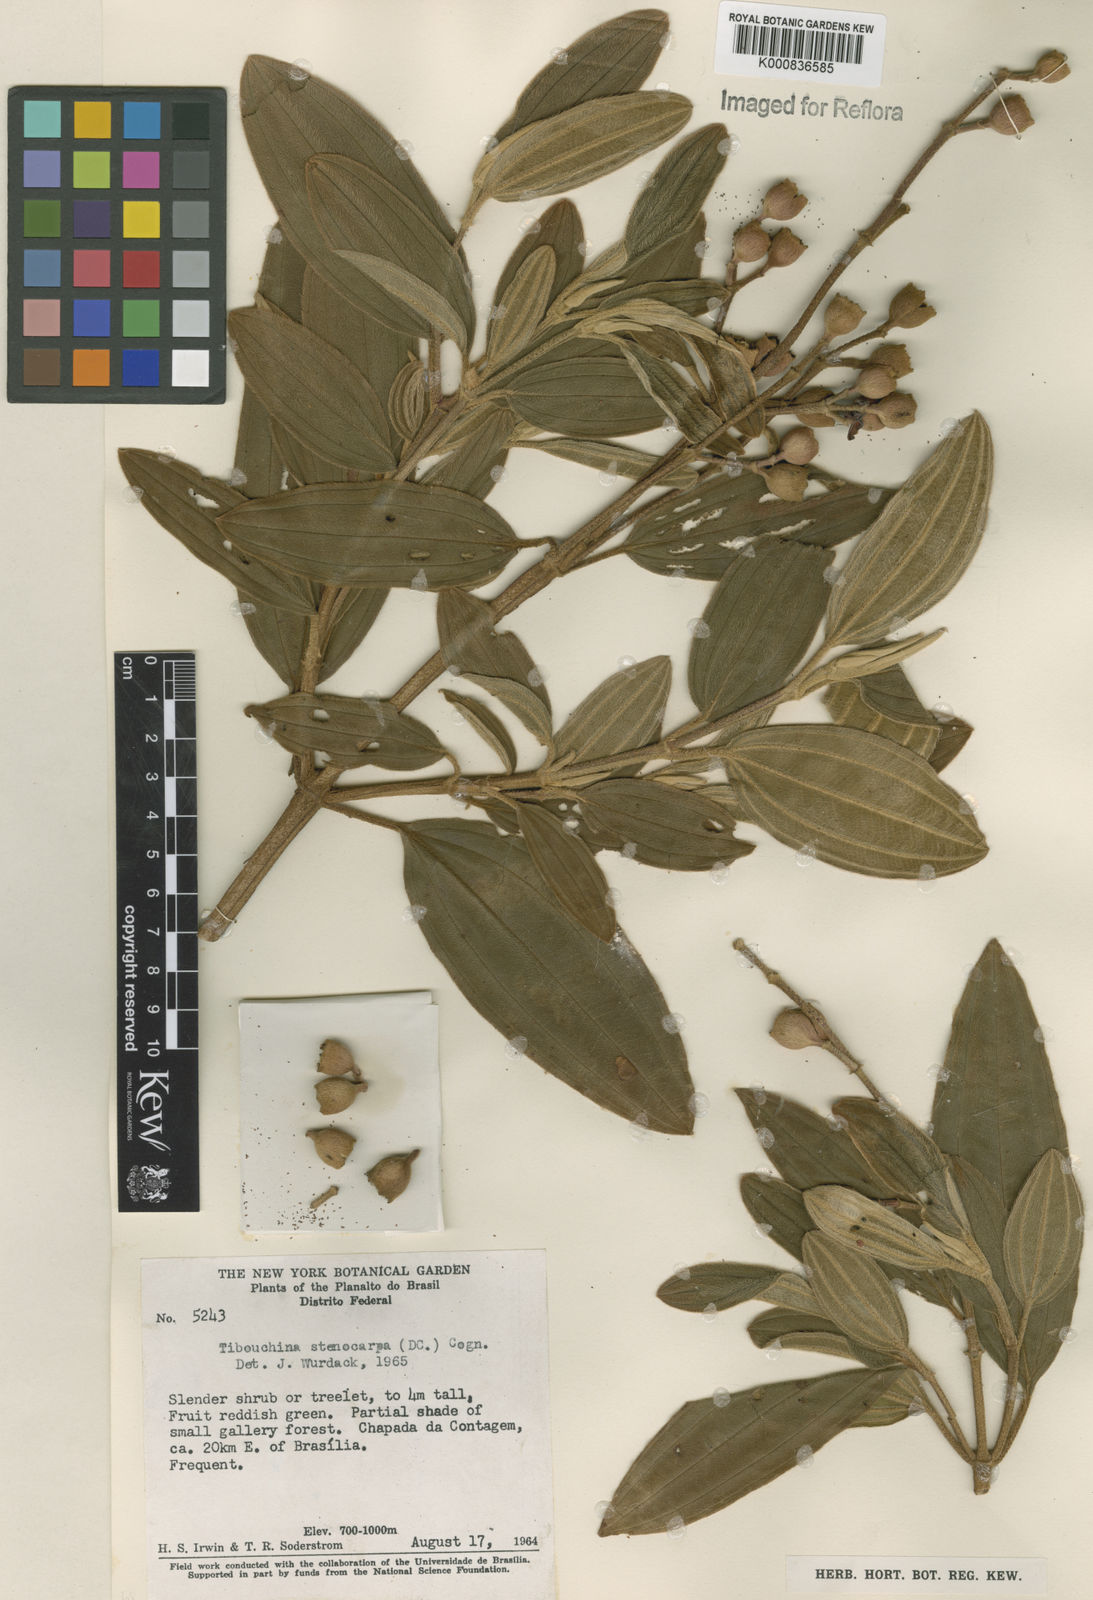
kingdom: Plantae
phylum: Tracheophyta
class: Magnoliopsida
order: Myrtales
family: Melastomataceae
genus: Pleroma
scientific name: Pleroma stenocarpum
